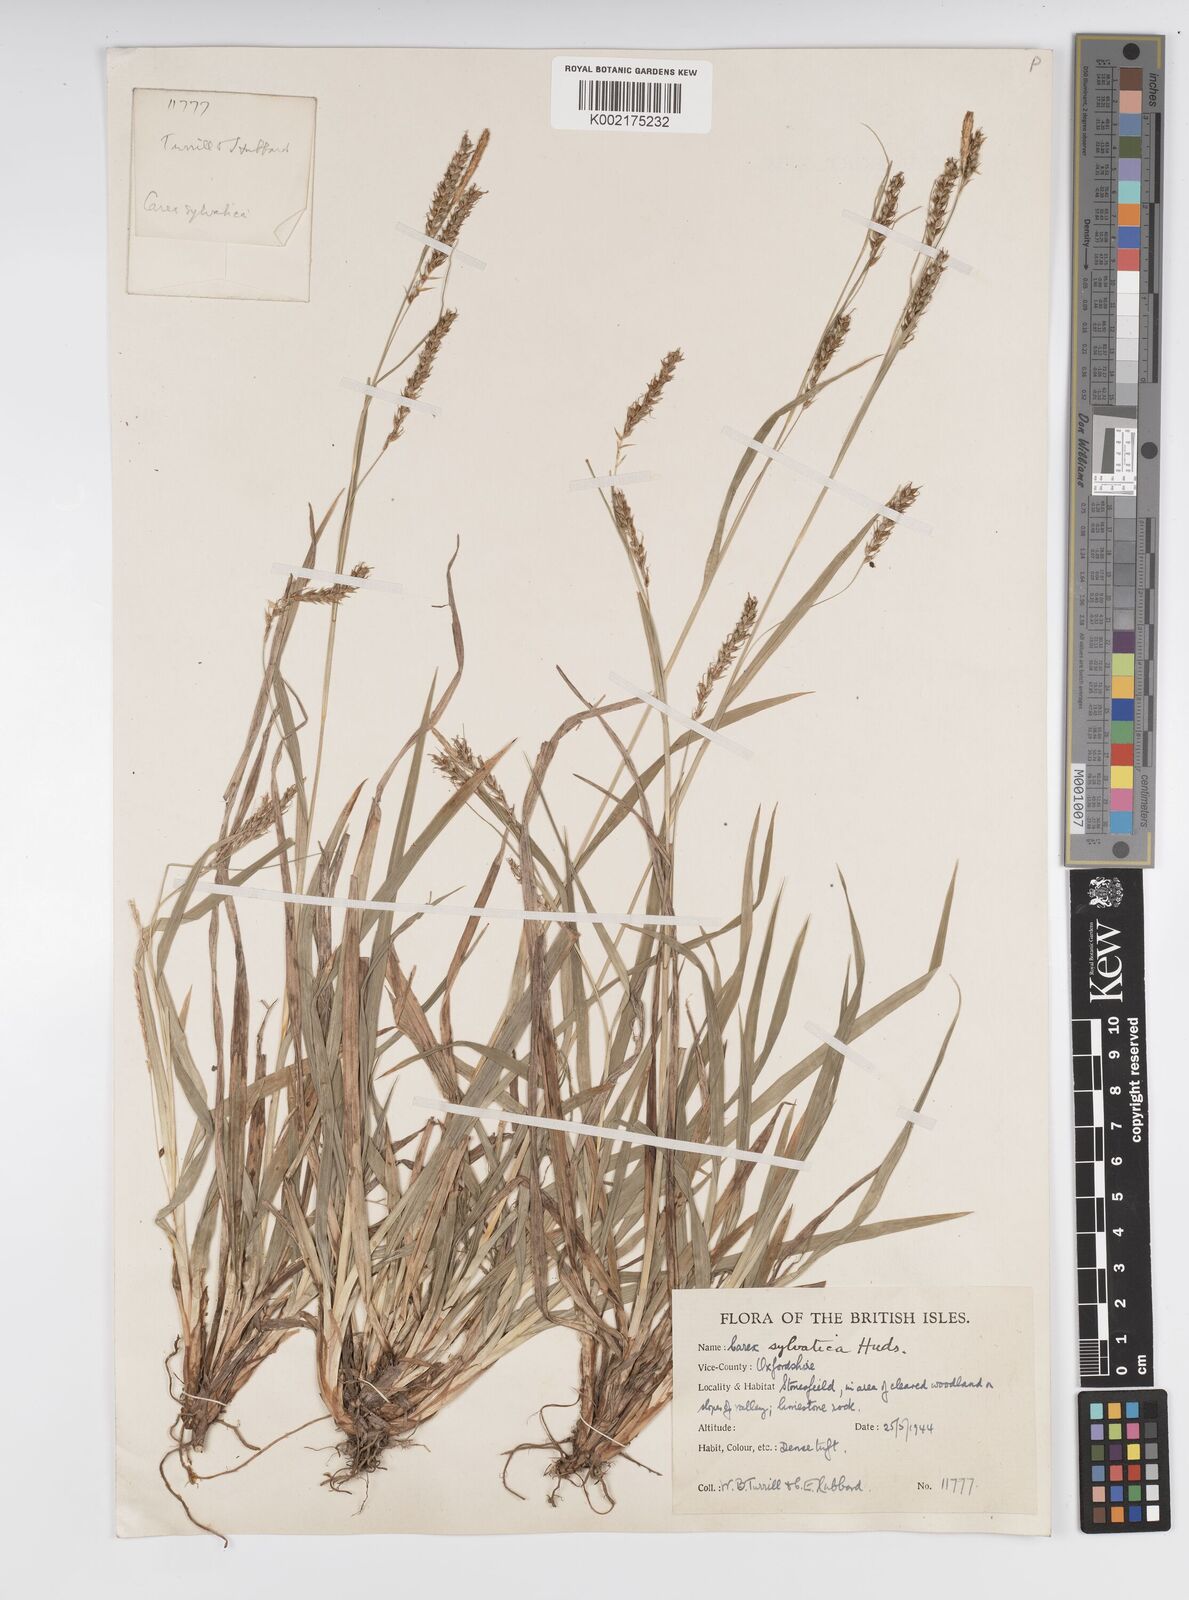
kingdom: Plantae
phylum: Tracheophyta
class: Liliopsida
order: Poales
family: Cyperaceae
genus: Carex
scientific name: Carex sylvatica
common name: Wood-sedge
